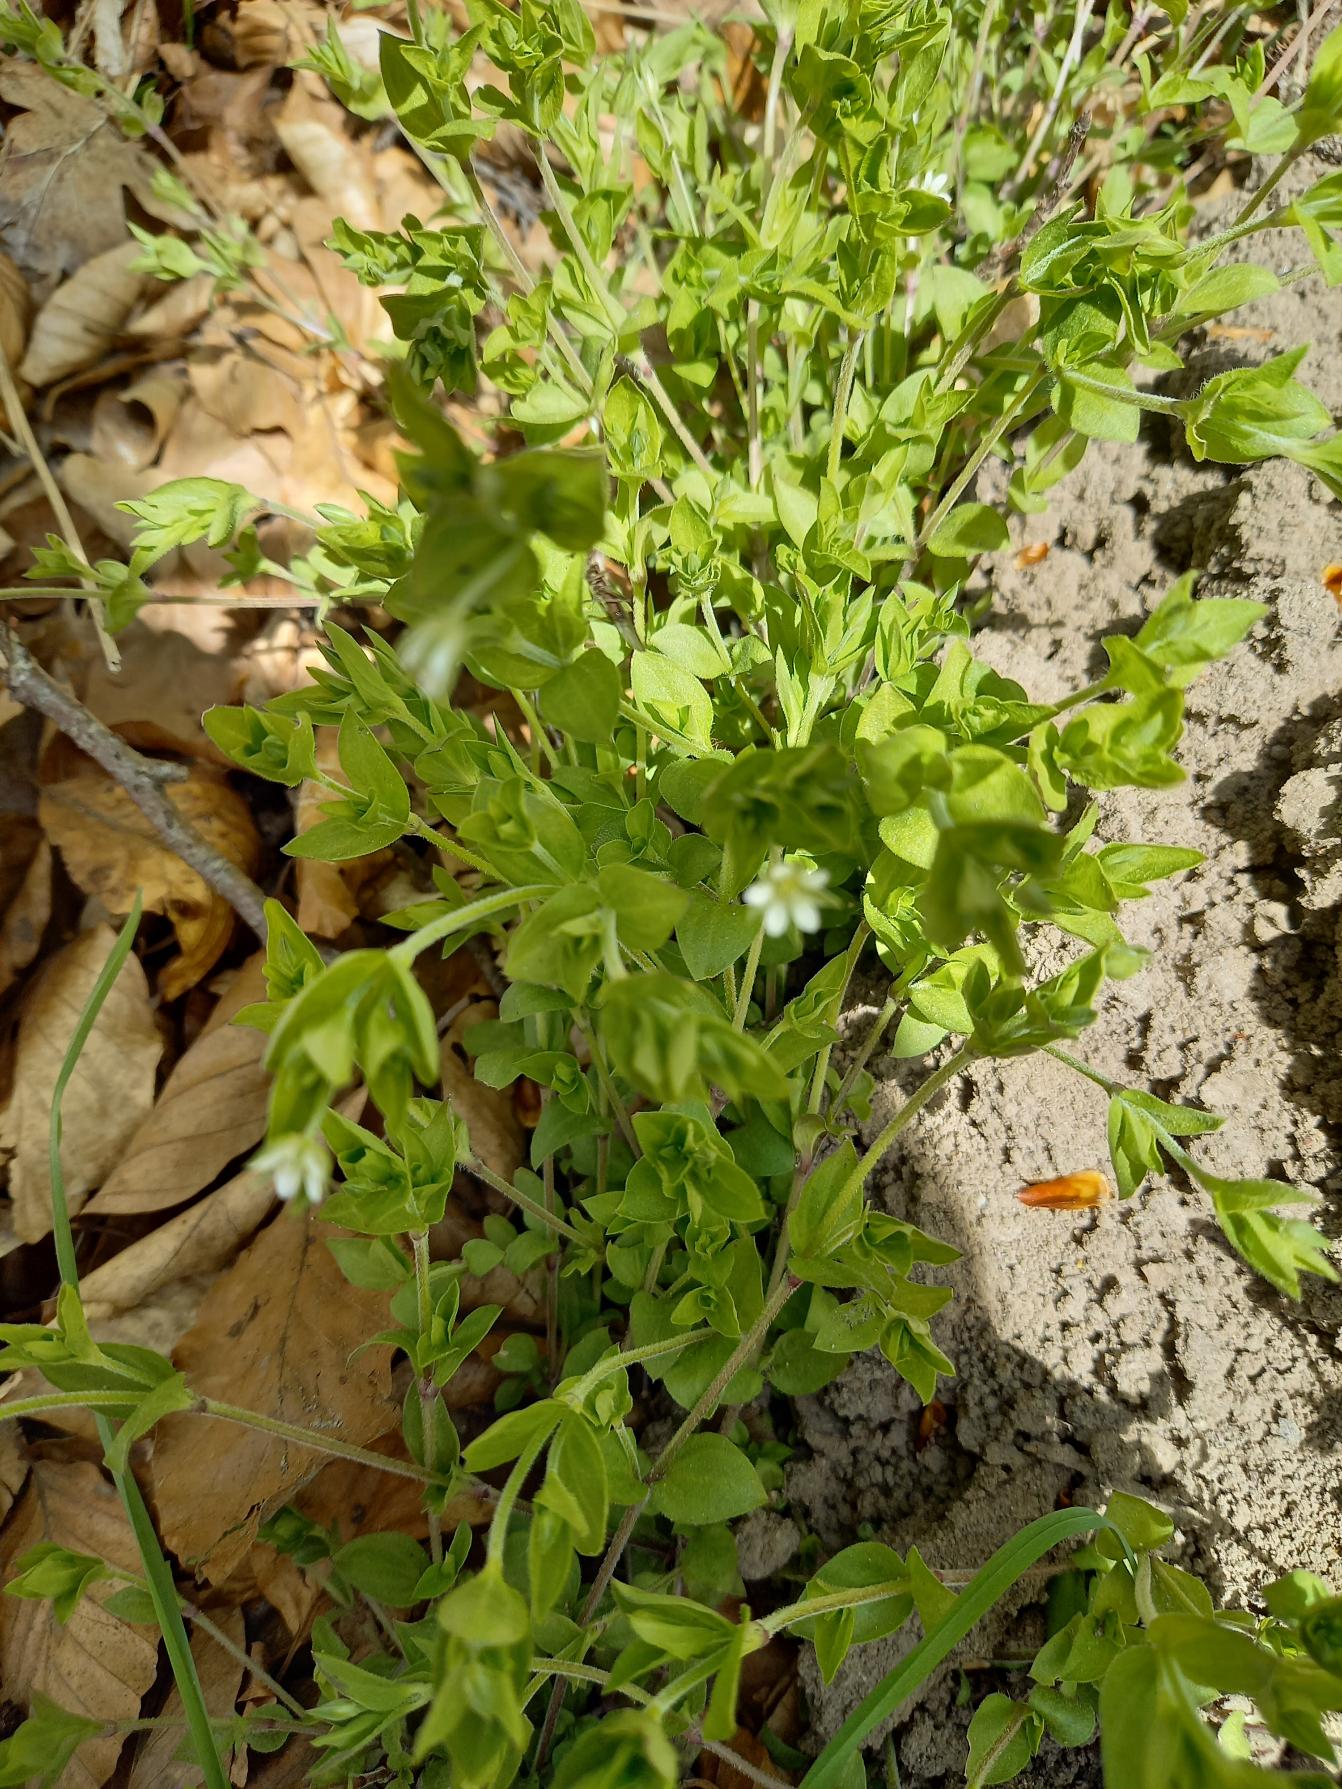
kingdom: Plantae
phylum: Tracheophyta
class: Magnoliopsida
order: Caryophyllales
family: Caryophyllaceae
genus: Moehringia
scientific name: Moehringia trinervia
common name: Skovarve
